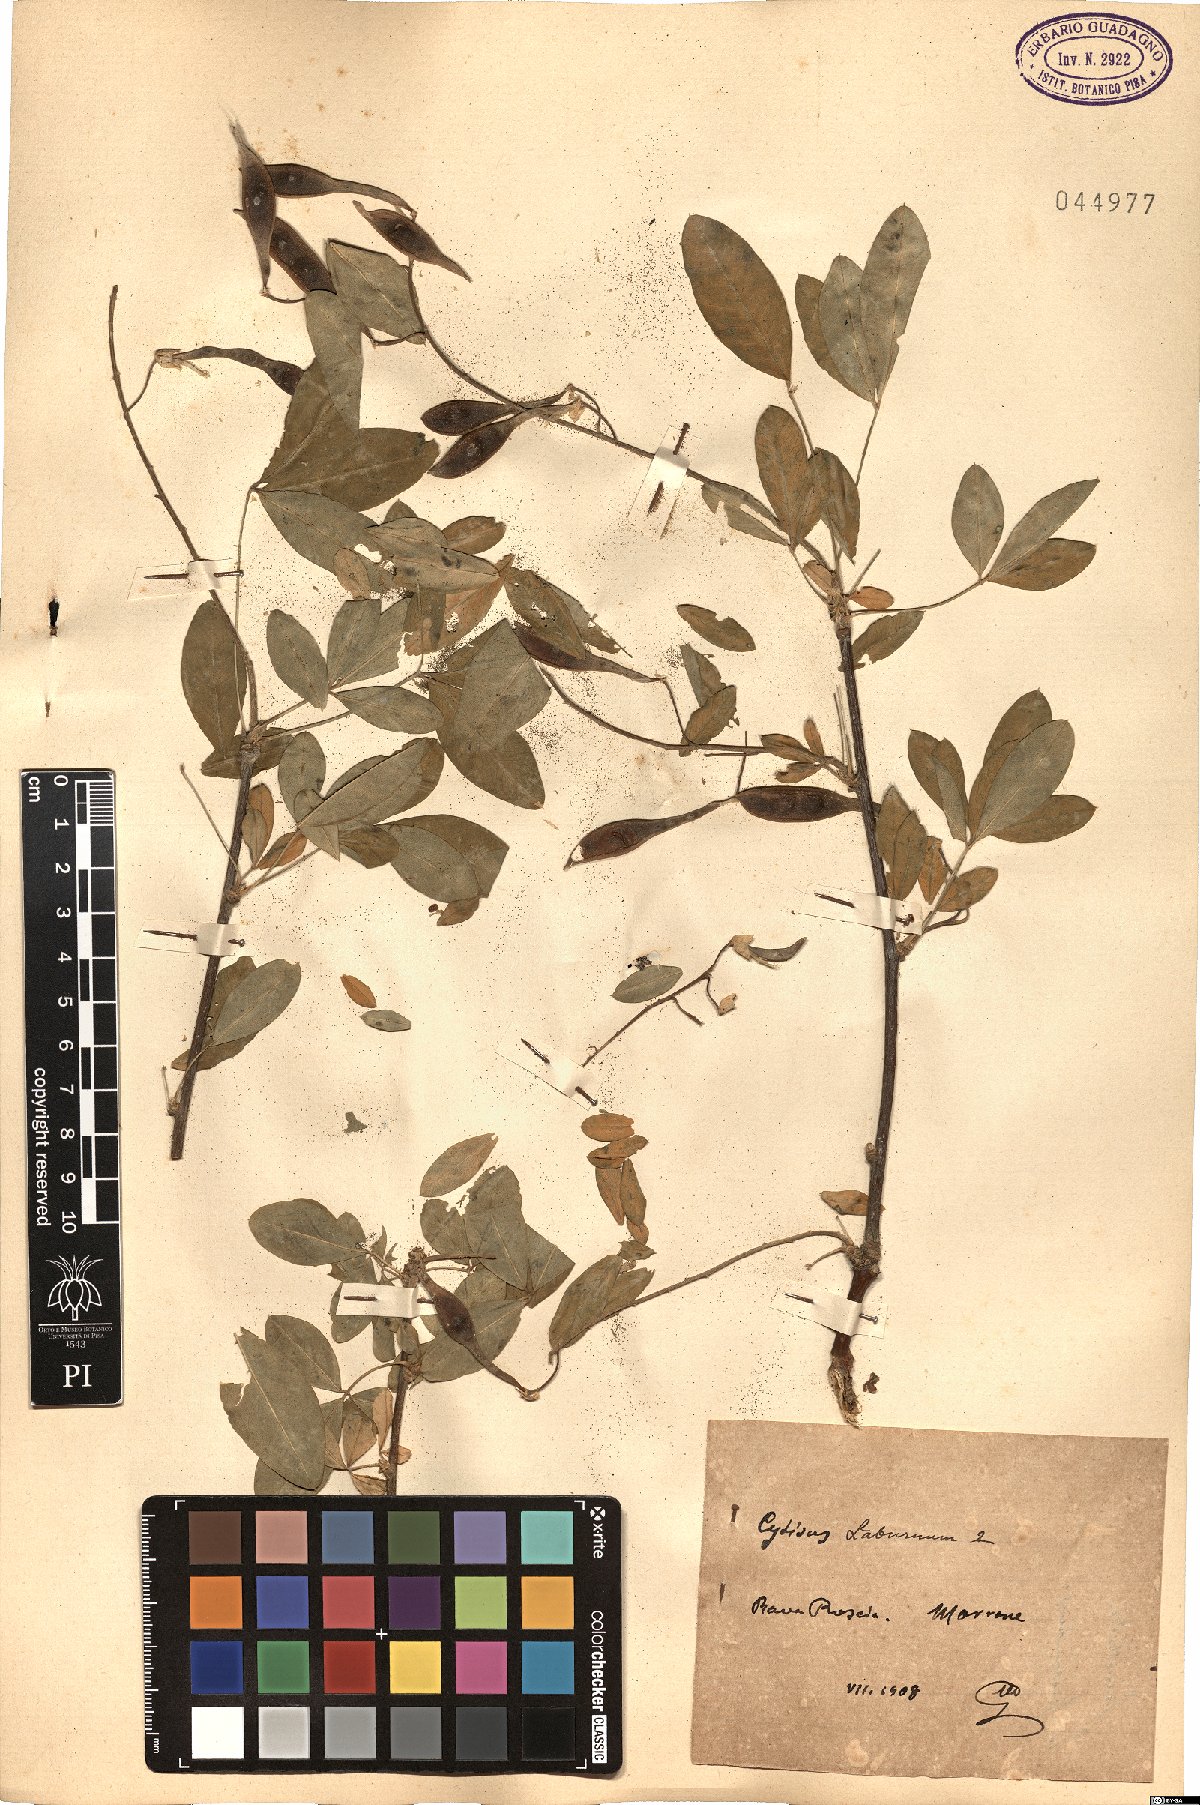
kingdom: Plantae
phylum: Tracheophyta
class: Magnoliopsida
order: Fabales
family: Fabaceae
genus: Laburnum
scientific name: Laburnum anagyroides
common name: Laburnum
